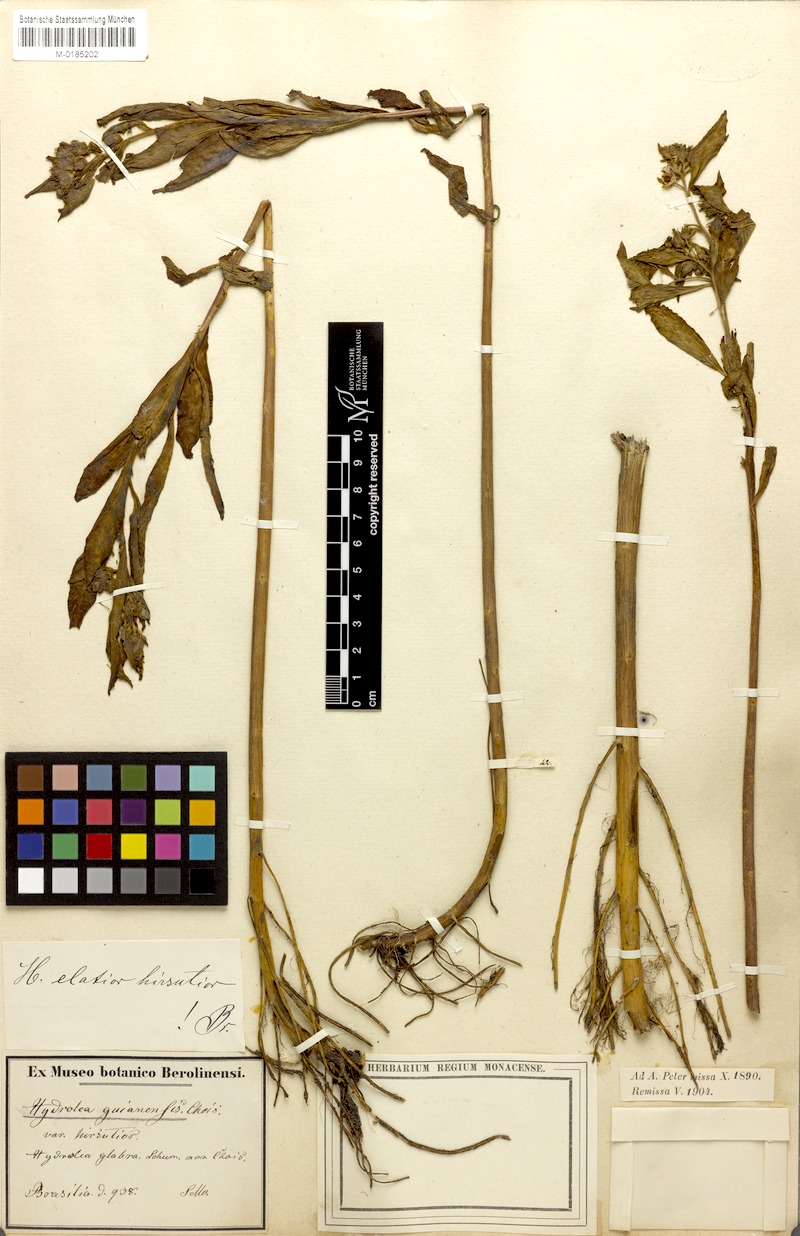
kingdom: Plantae
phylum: Tracheophyta
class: Magnoliopsida
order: Solanales
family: Hydroleaceae
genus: Hydrolea
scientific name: Hydrolea elatior
